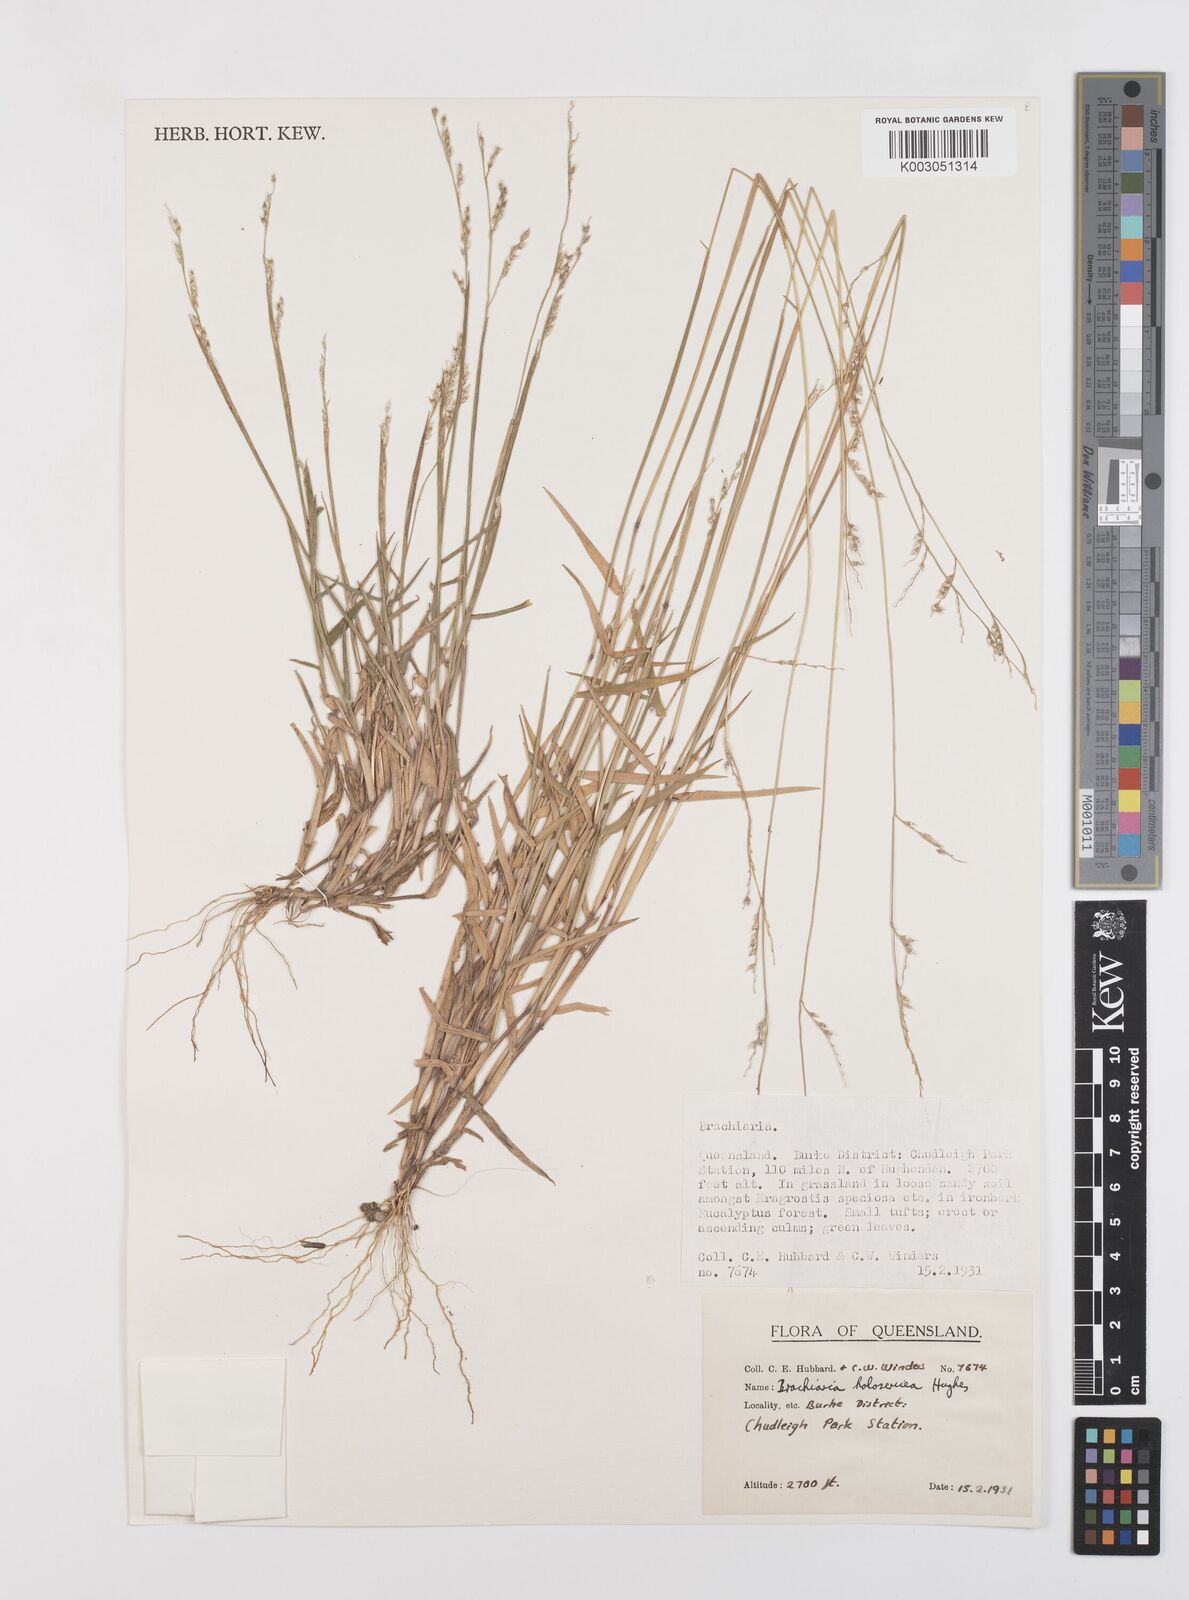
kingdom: Plantae
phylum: Tracheophyta
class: Liliopsida
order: Poales
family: Poaceae
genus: Urochloa
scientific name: Urochloa holosericea
